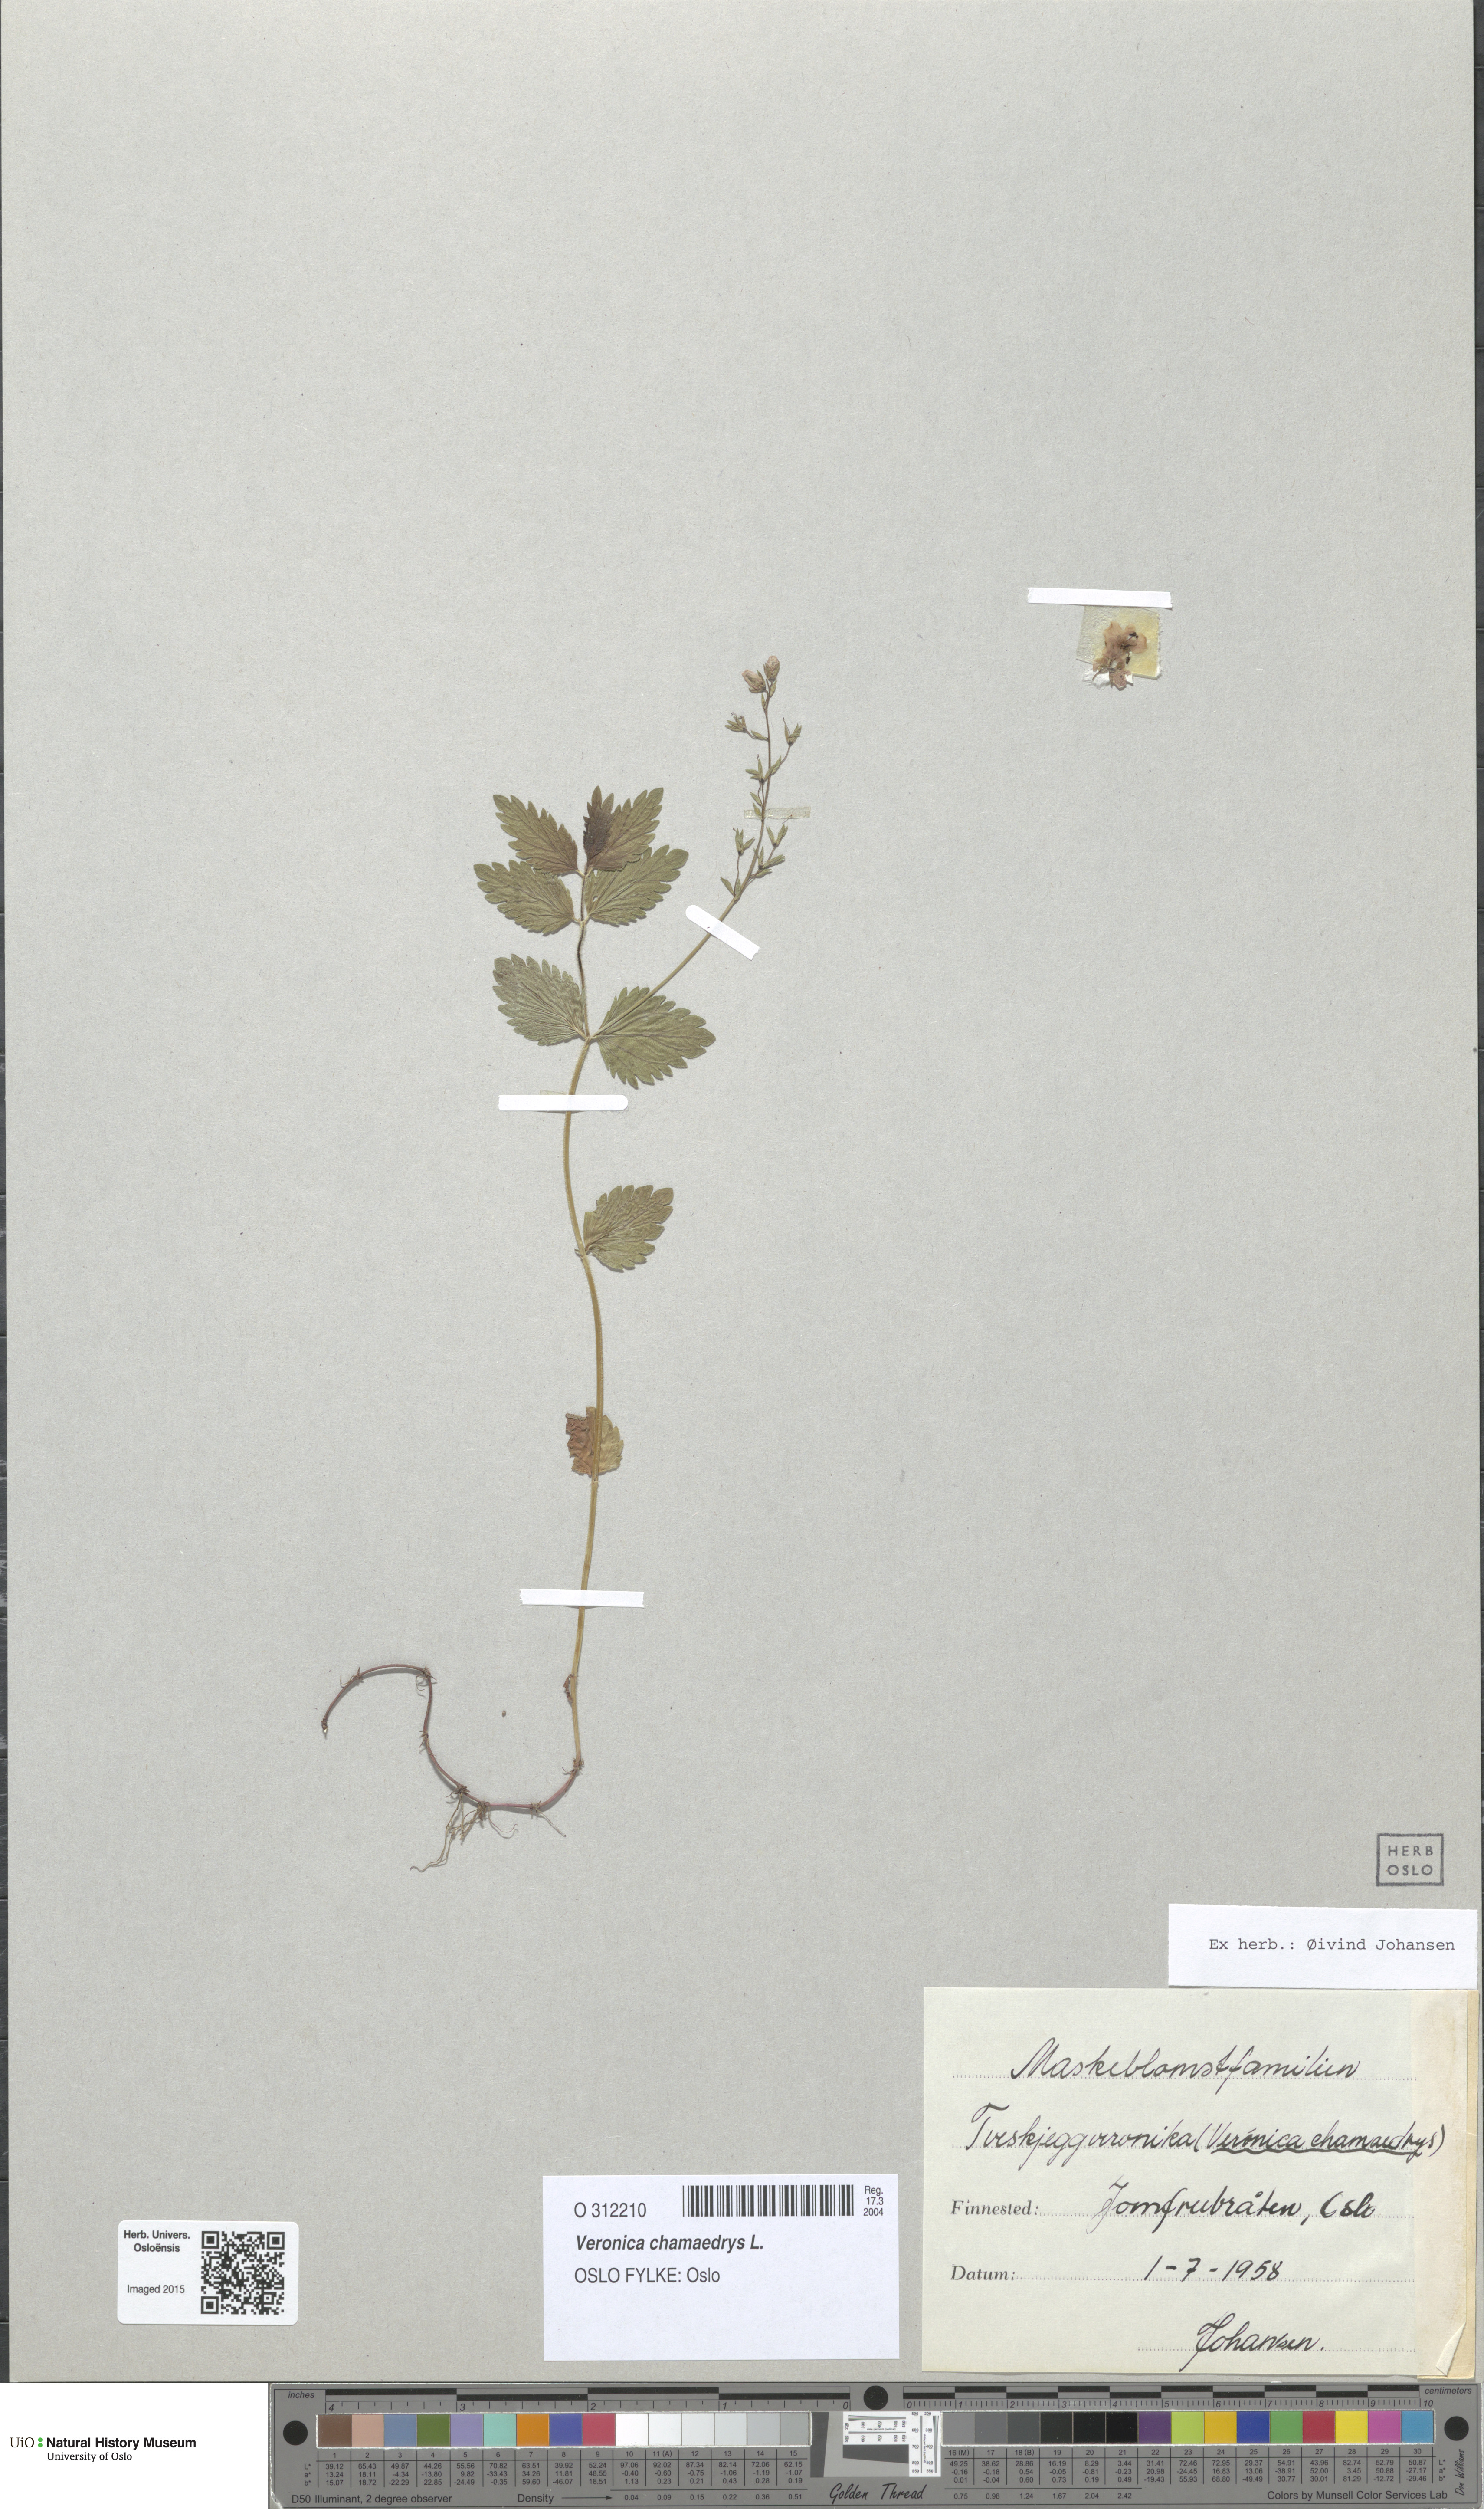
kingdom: Plantae
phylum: Tracheophyta
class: Magnoliopsida
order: Lamiales
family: Plantaginaceae
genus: Veronica
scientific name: Veronica chamaedrys
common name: Germander speedwell
